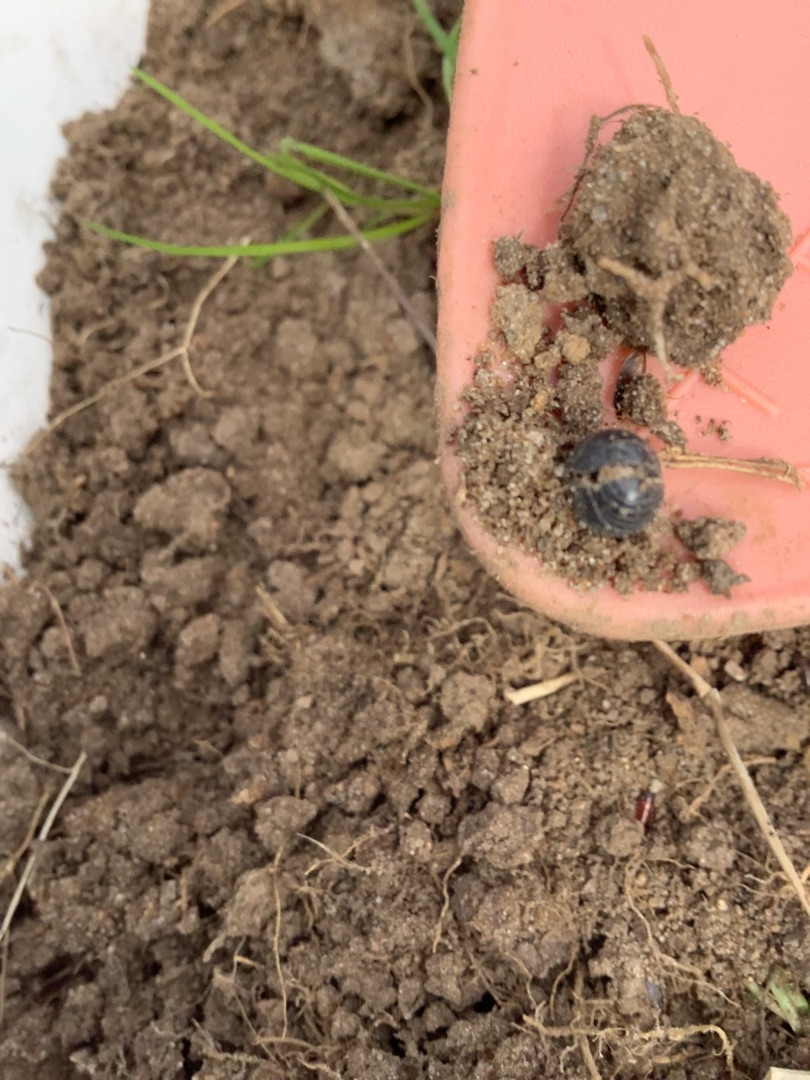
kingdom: Animalia
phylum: Arthropoda
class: Malacostraca
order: Isopoda
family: Armadillidiidae
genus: Armadillidium
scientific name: Armadillidium vulgare
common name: Almindelig kuglebænkebider
